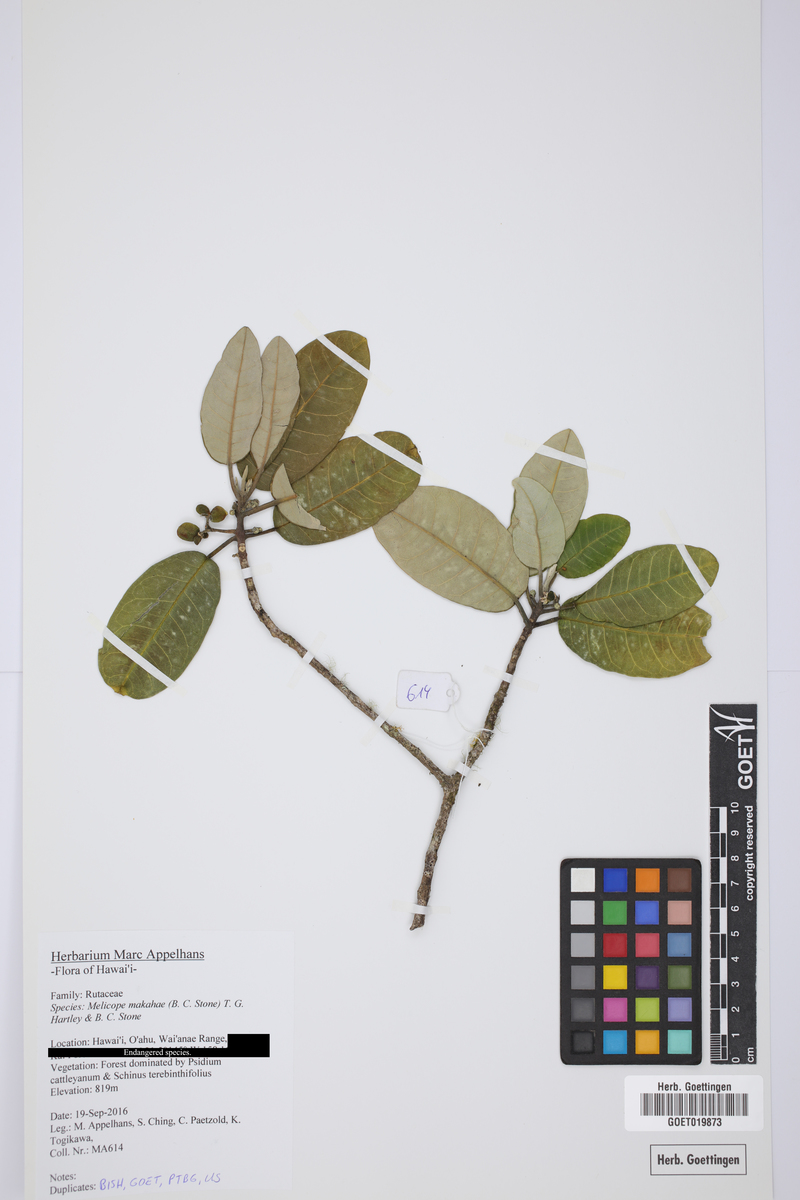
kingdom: Plantae
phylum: Tracheophyta
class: Magnoliopsida
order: Sapindales
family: Rutaceae
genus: Melicope
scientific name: Melicope makahae
